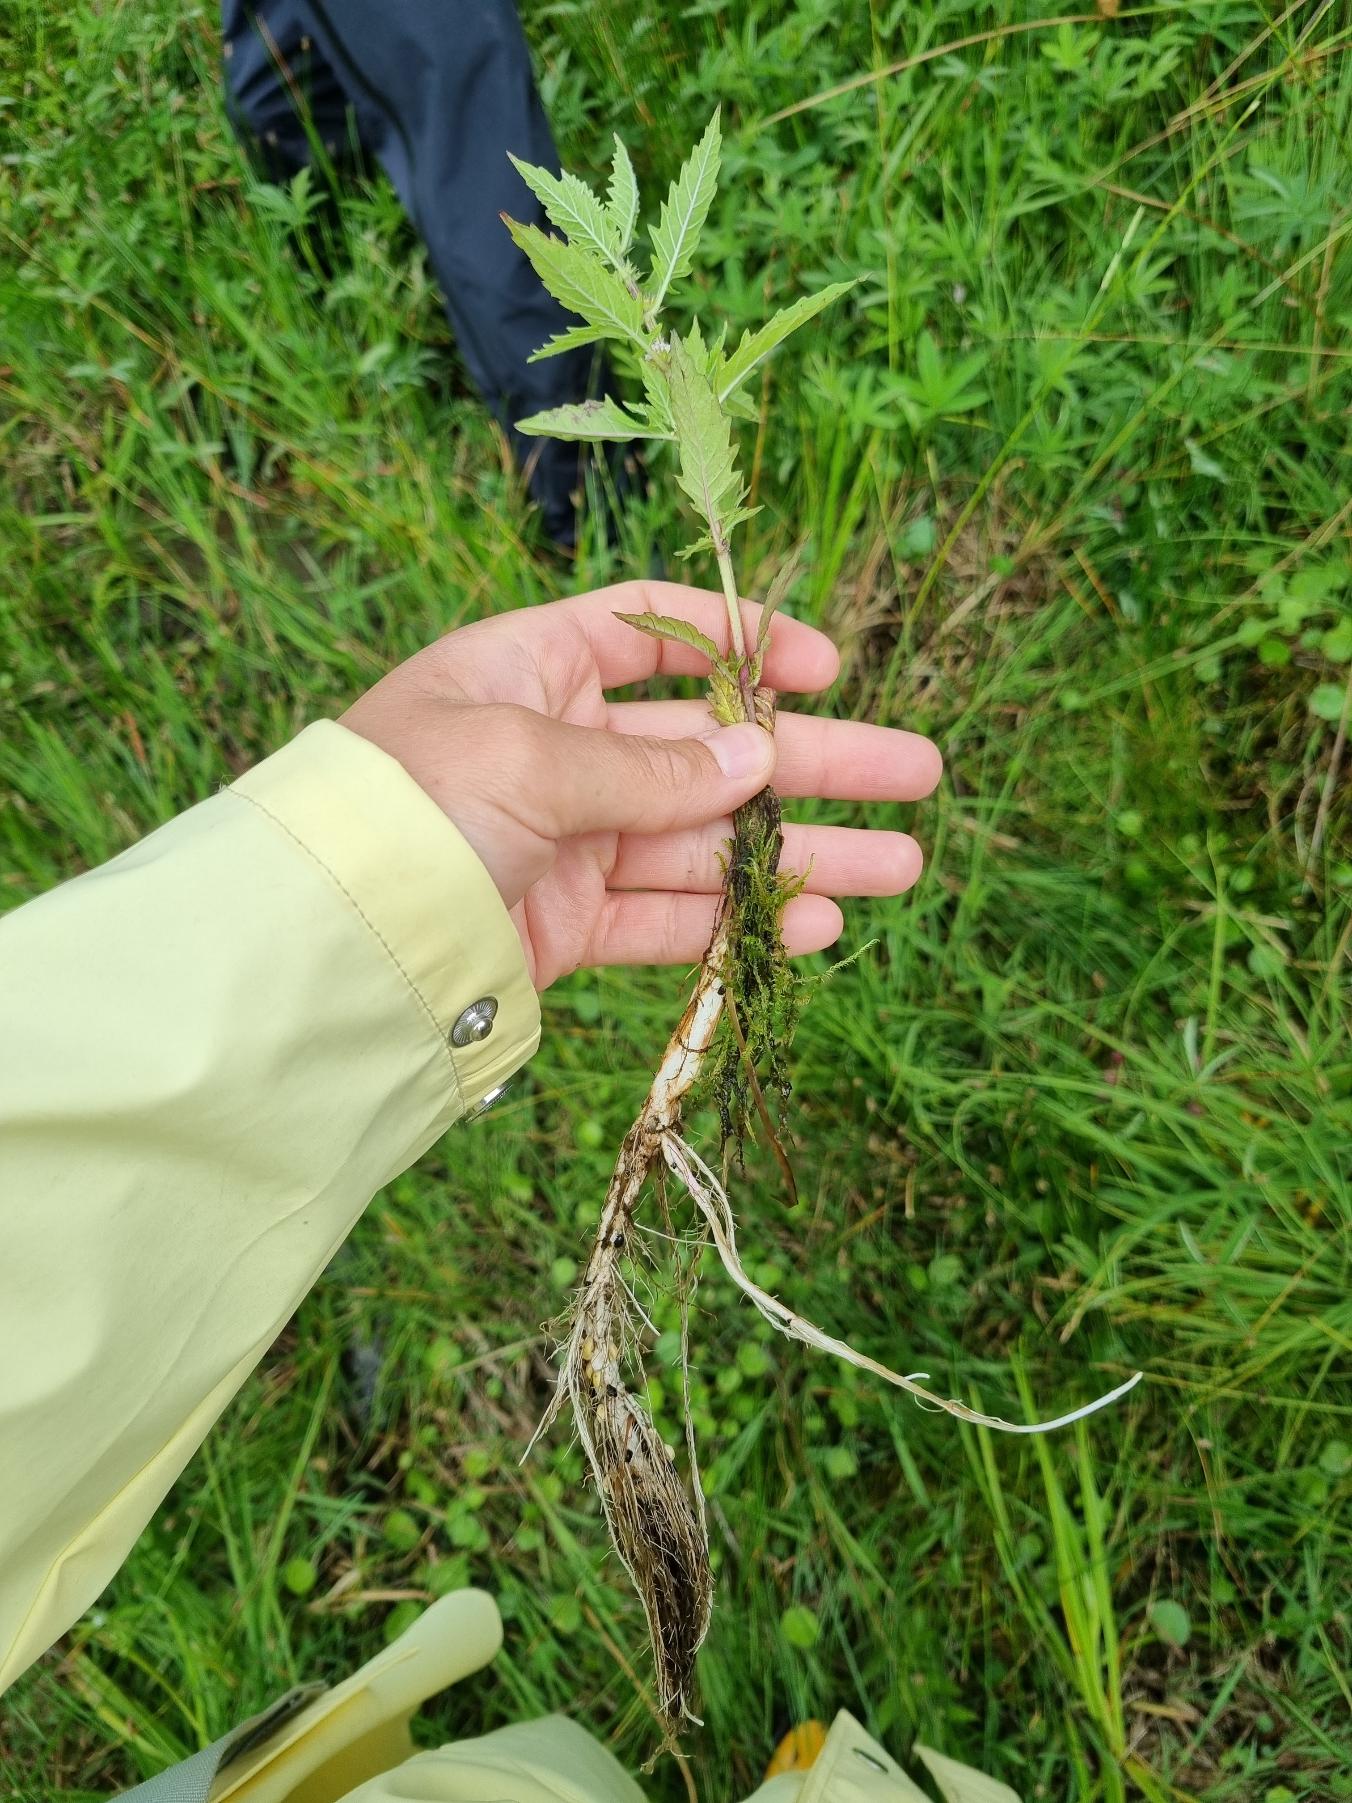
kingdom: Plantae
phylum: Tracheophyta
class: Magnoliopsida
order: Lamiales
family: Lamiaceae
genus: Lycopus
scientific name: Lycopus europaeus
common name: Sværtevæld
